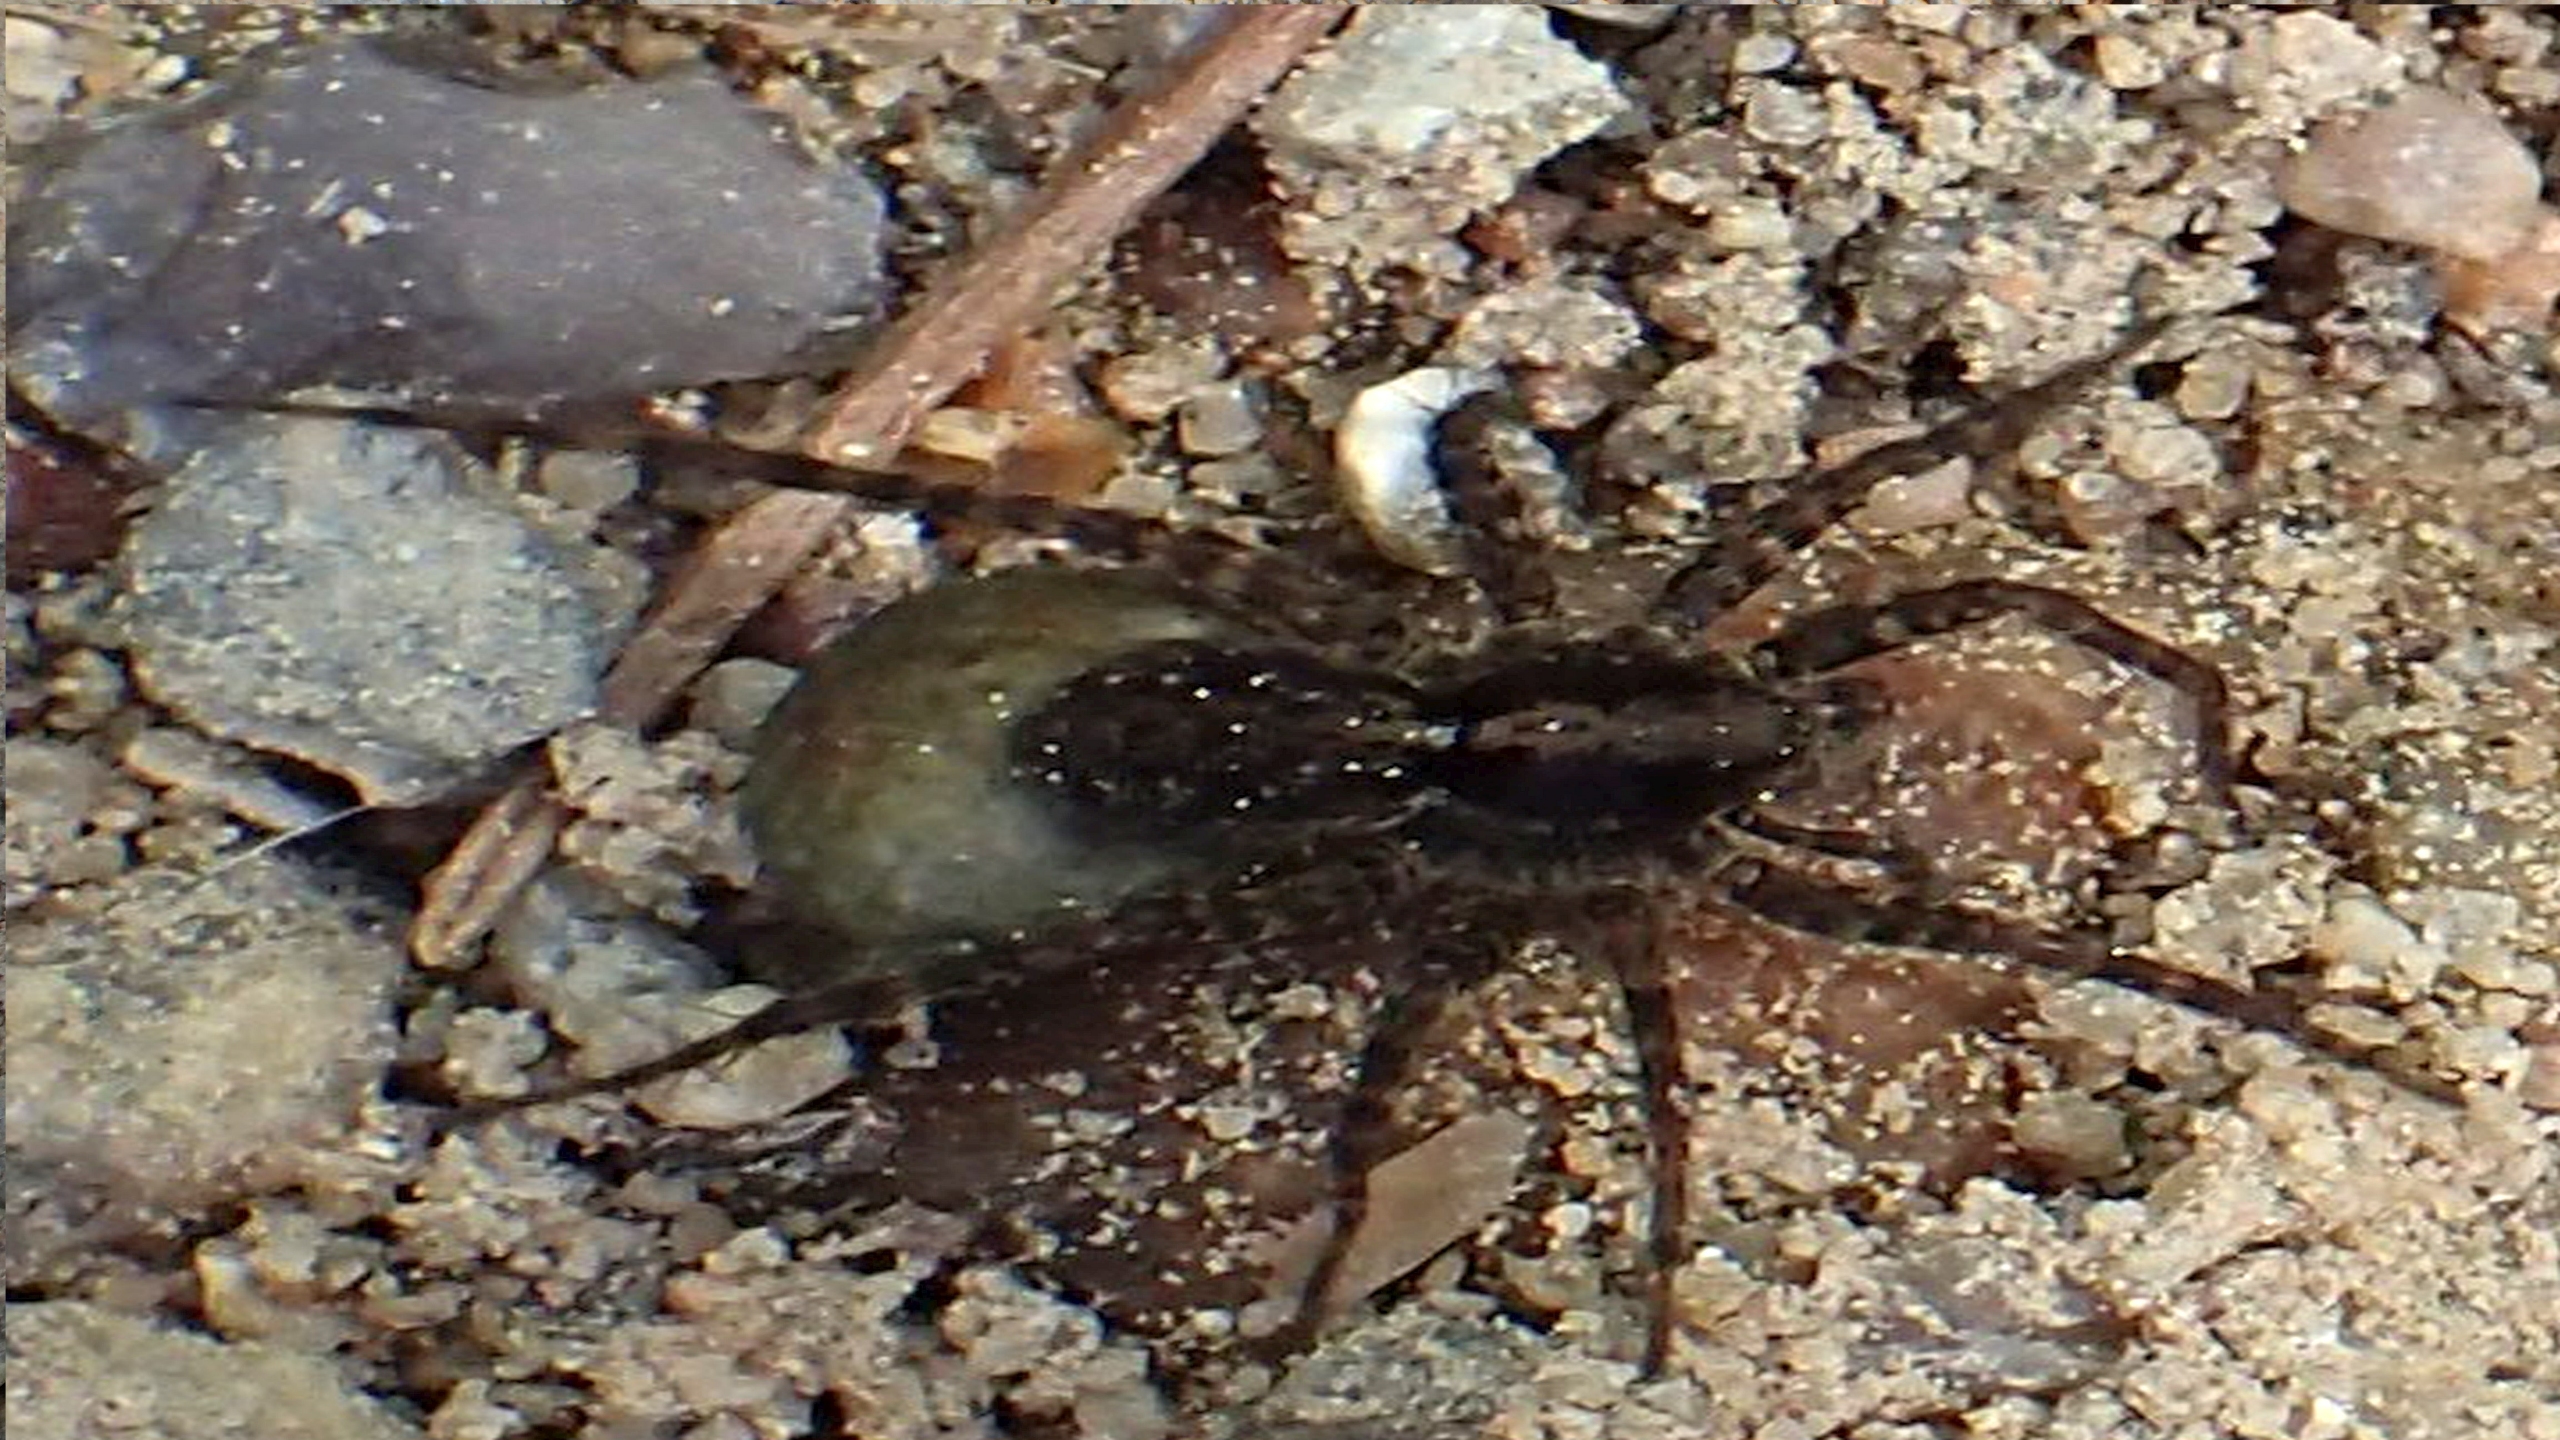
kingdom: Animalia
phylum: Arthropoda
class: Arachnida
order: Araneae
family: Lycosidae
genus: Pardosa
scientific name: Pardosa
